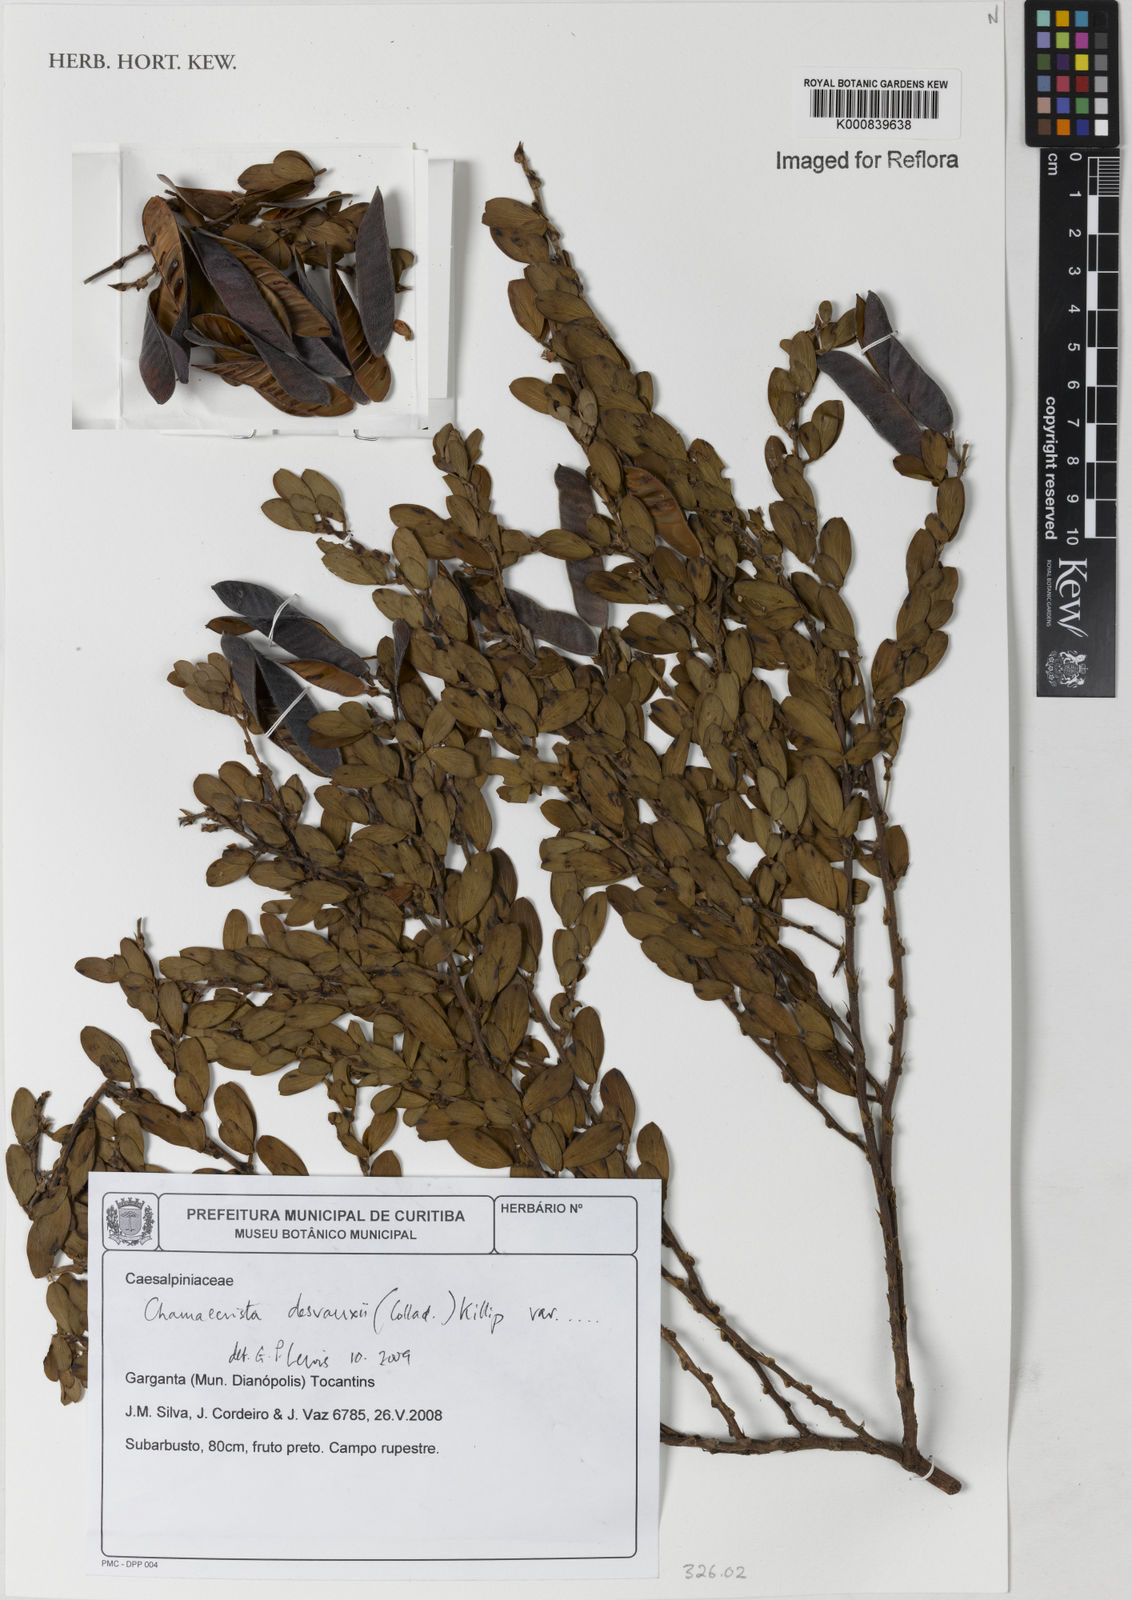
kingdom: Plantae
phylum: Tracheophyta
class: Magnoliopsida
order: Fabales
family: Fabaceae
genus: Chamaecrista
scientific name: Chamaecrista desvauxii
